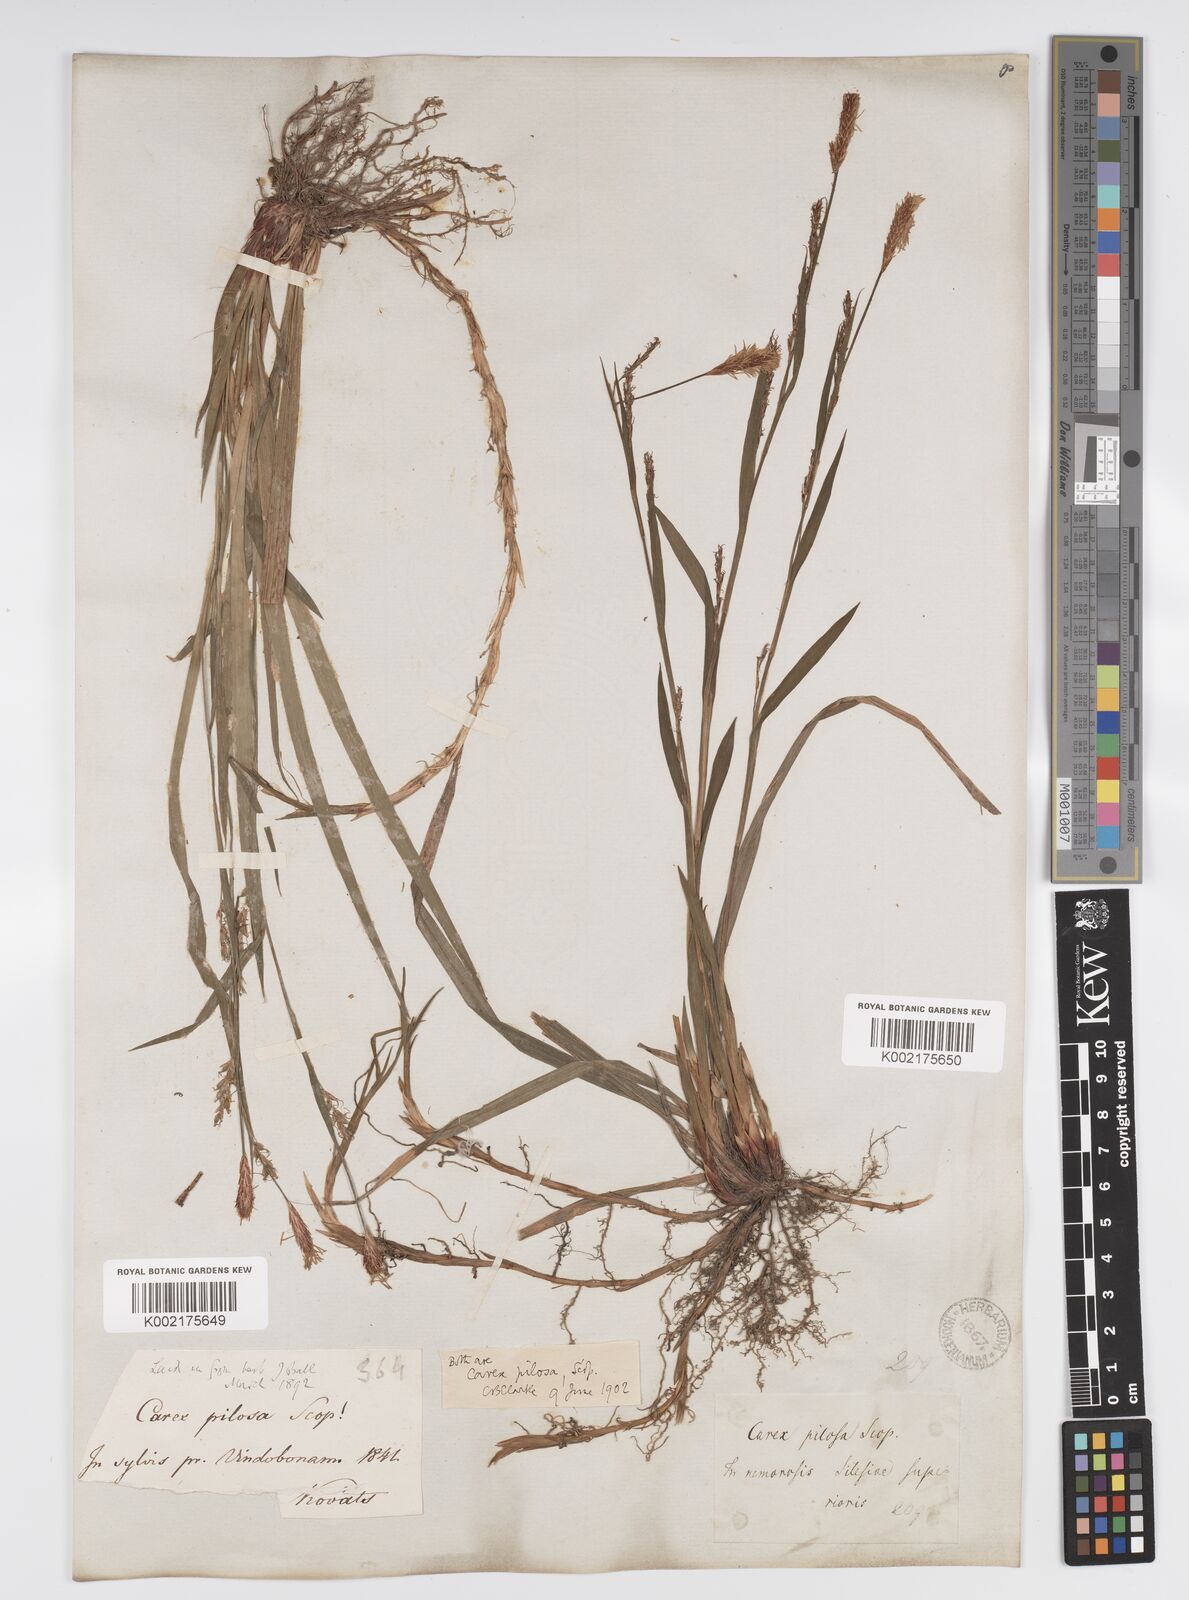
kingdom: Plantae
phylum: Tracheophyta
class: Liliopsida
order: Poales
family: Cyperaceae
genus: Carex
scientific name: Carex pilosa
